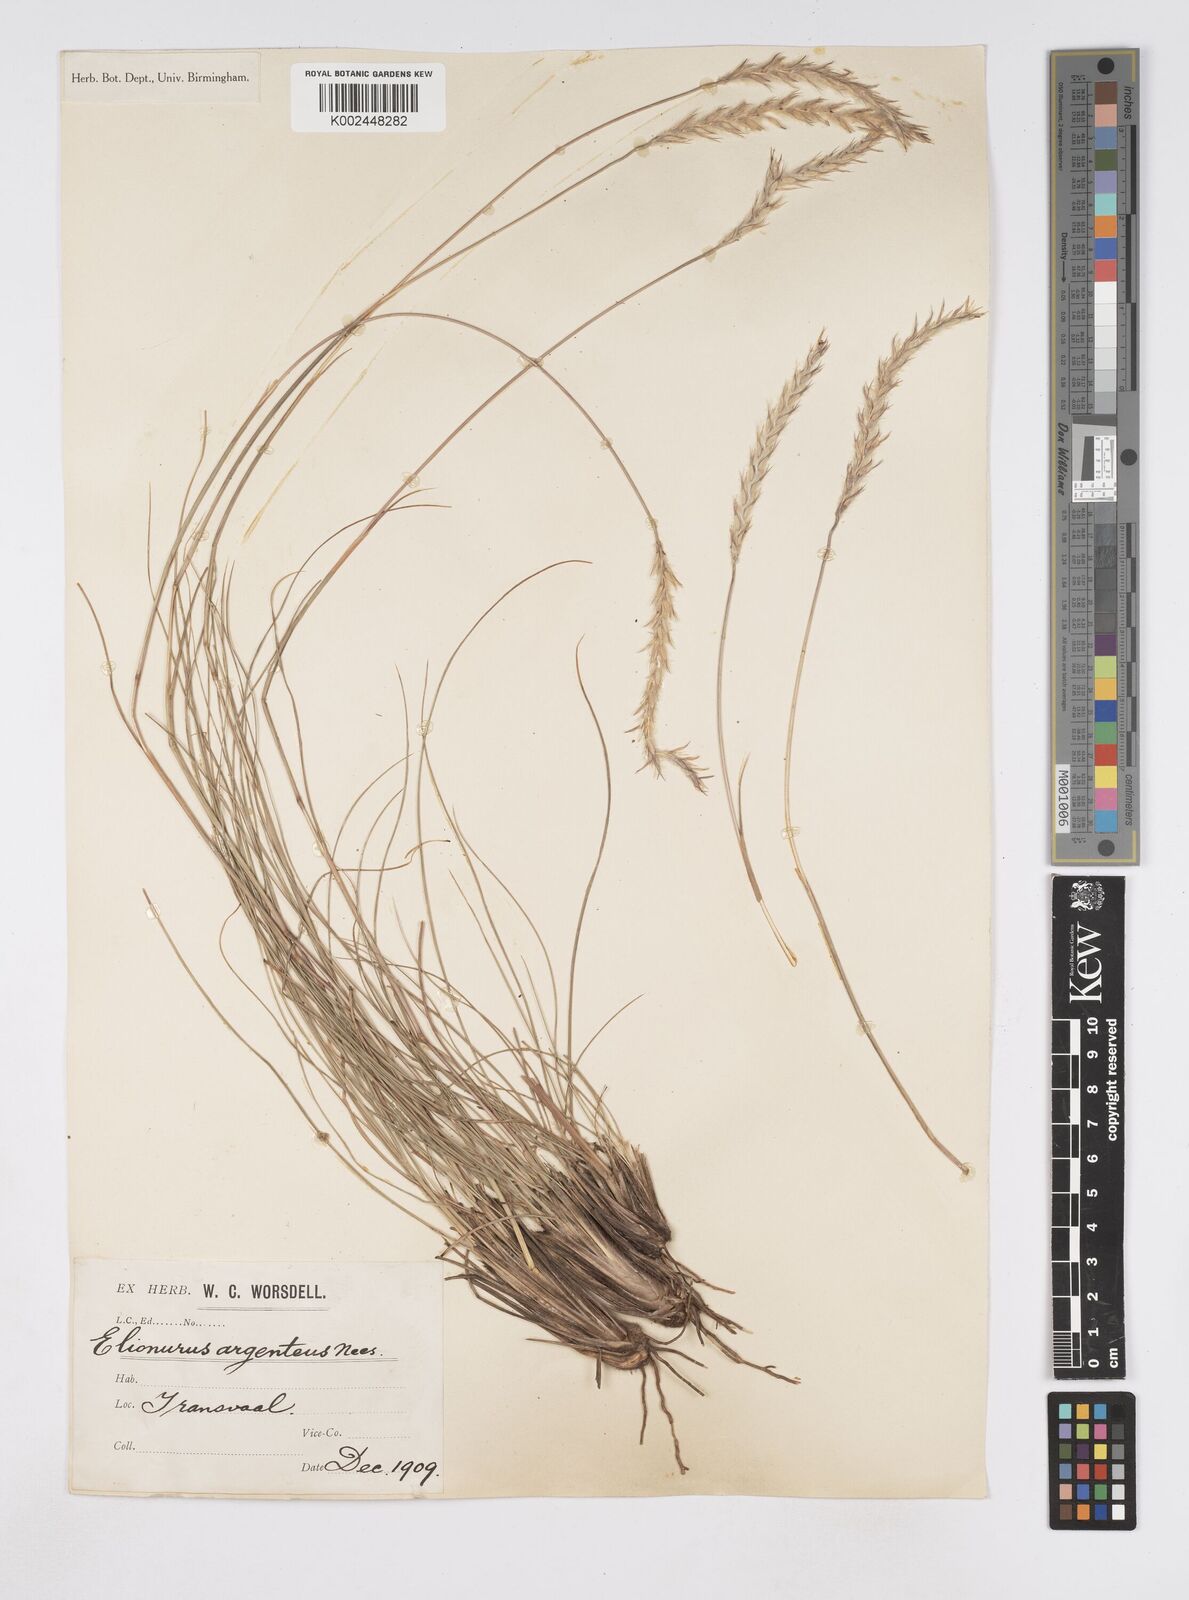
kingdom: Plantae
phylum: Tracheophyta
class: Liliopsida
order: Poales
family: Poaceae
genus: Elionurus
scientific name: Elionurus muticus
